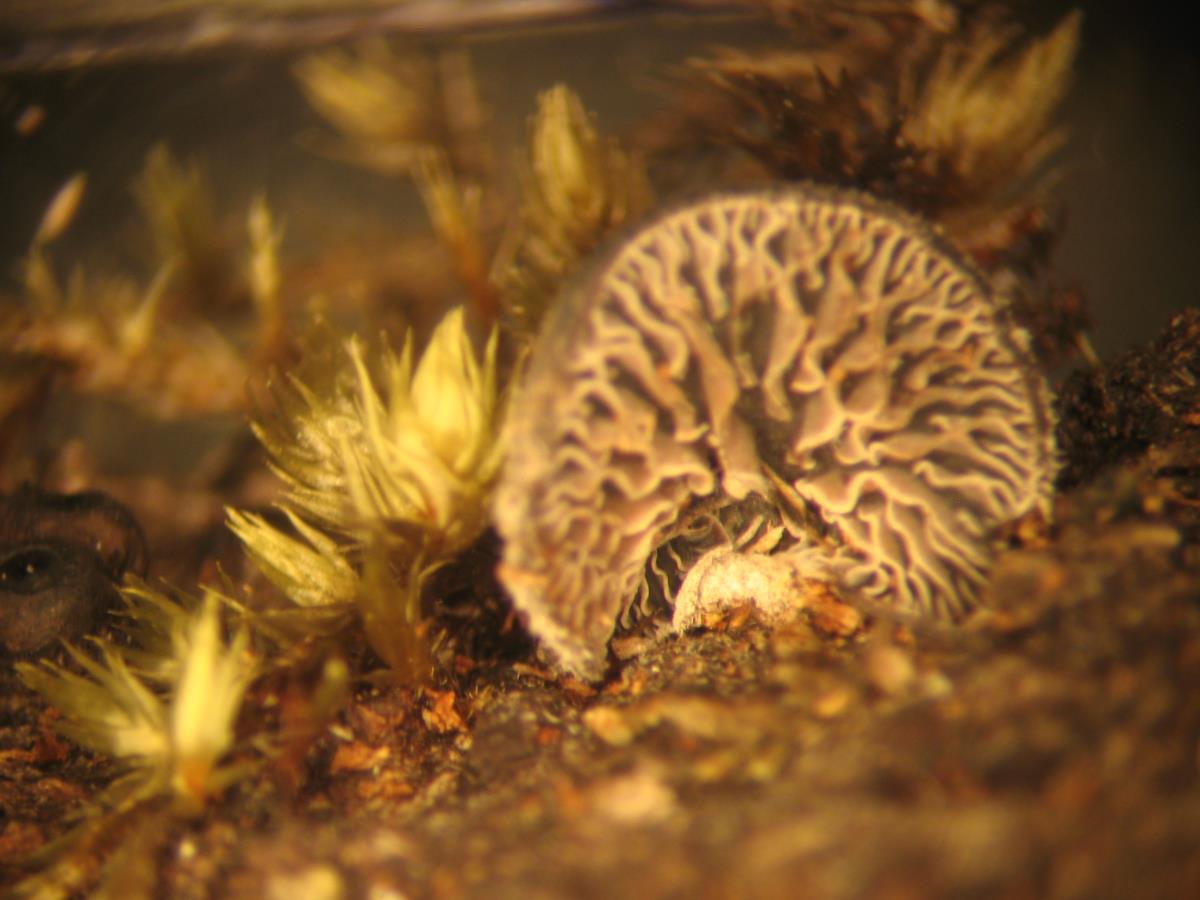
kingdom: Fungi
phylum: Basidiomycota
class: Agaricomycetes
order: Agaricales
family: Omphalotaceae
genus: Marasmiellus
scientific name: Marasmiellus violaceogriseus
